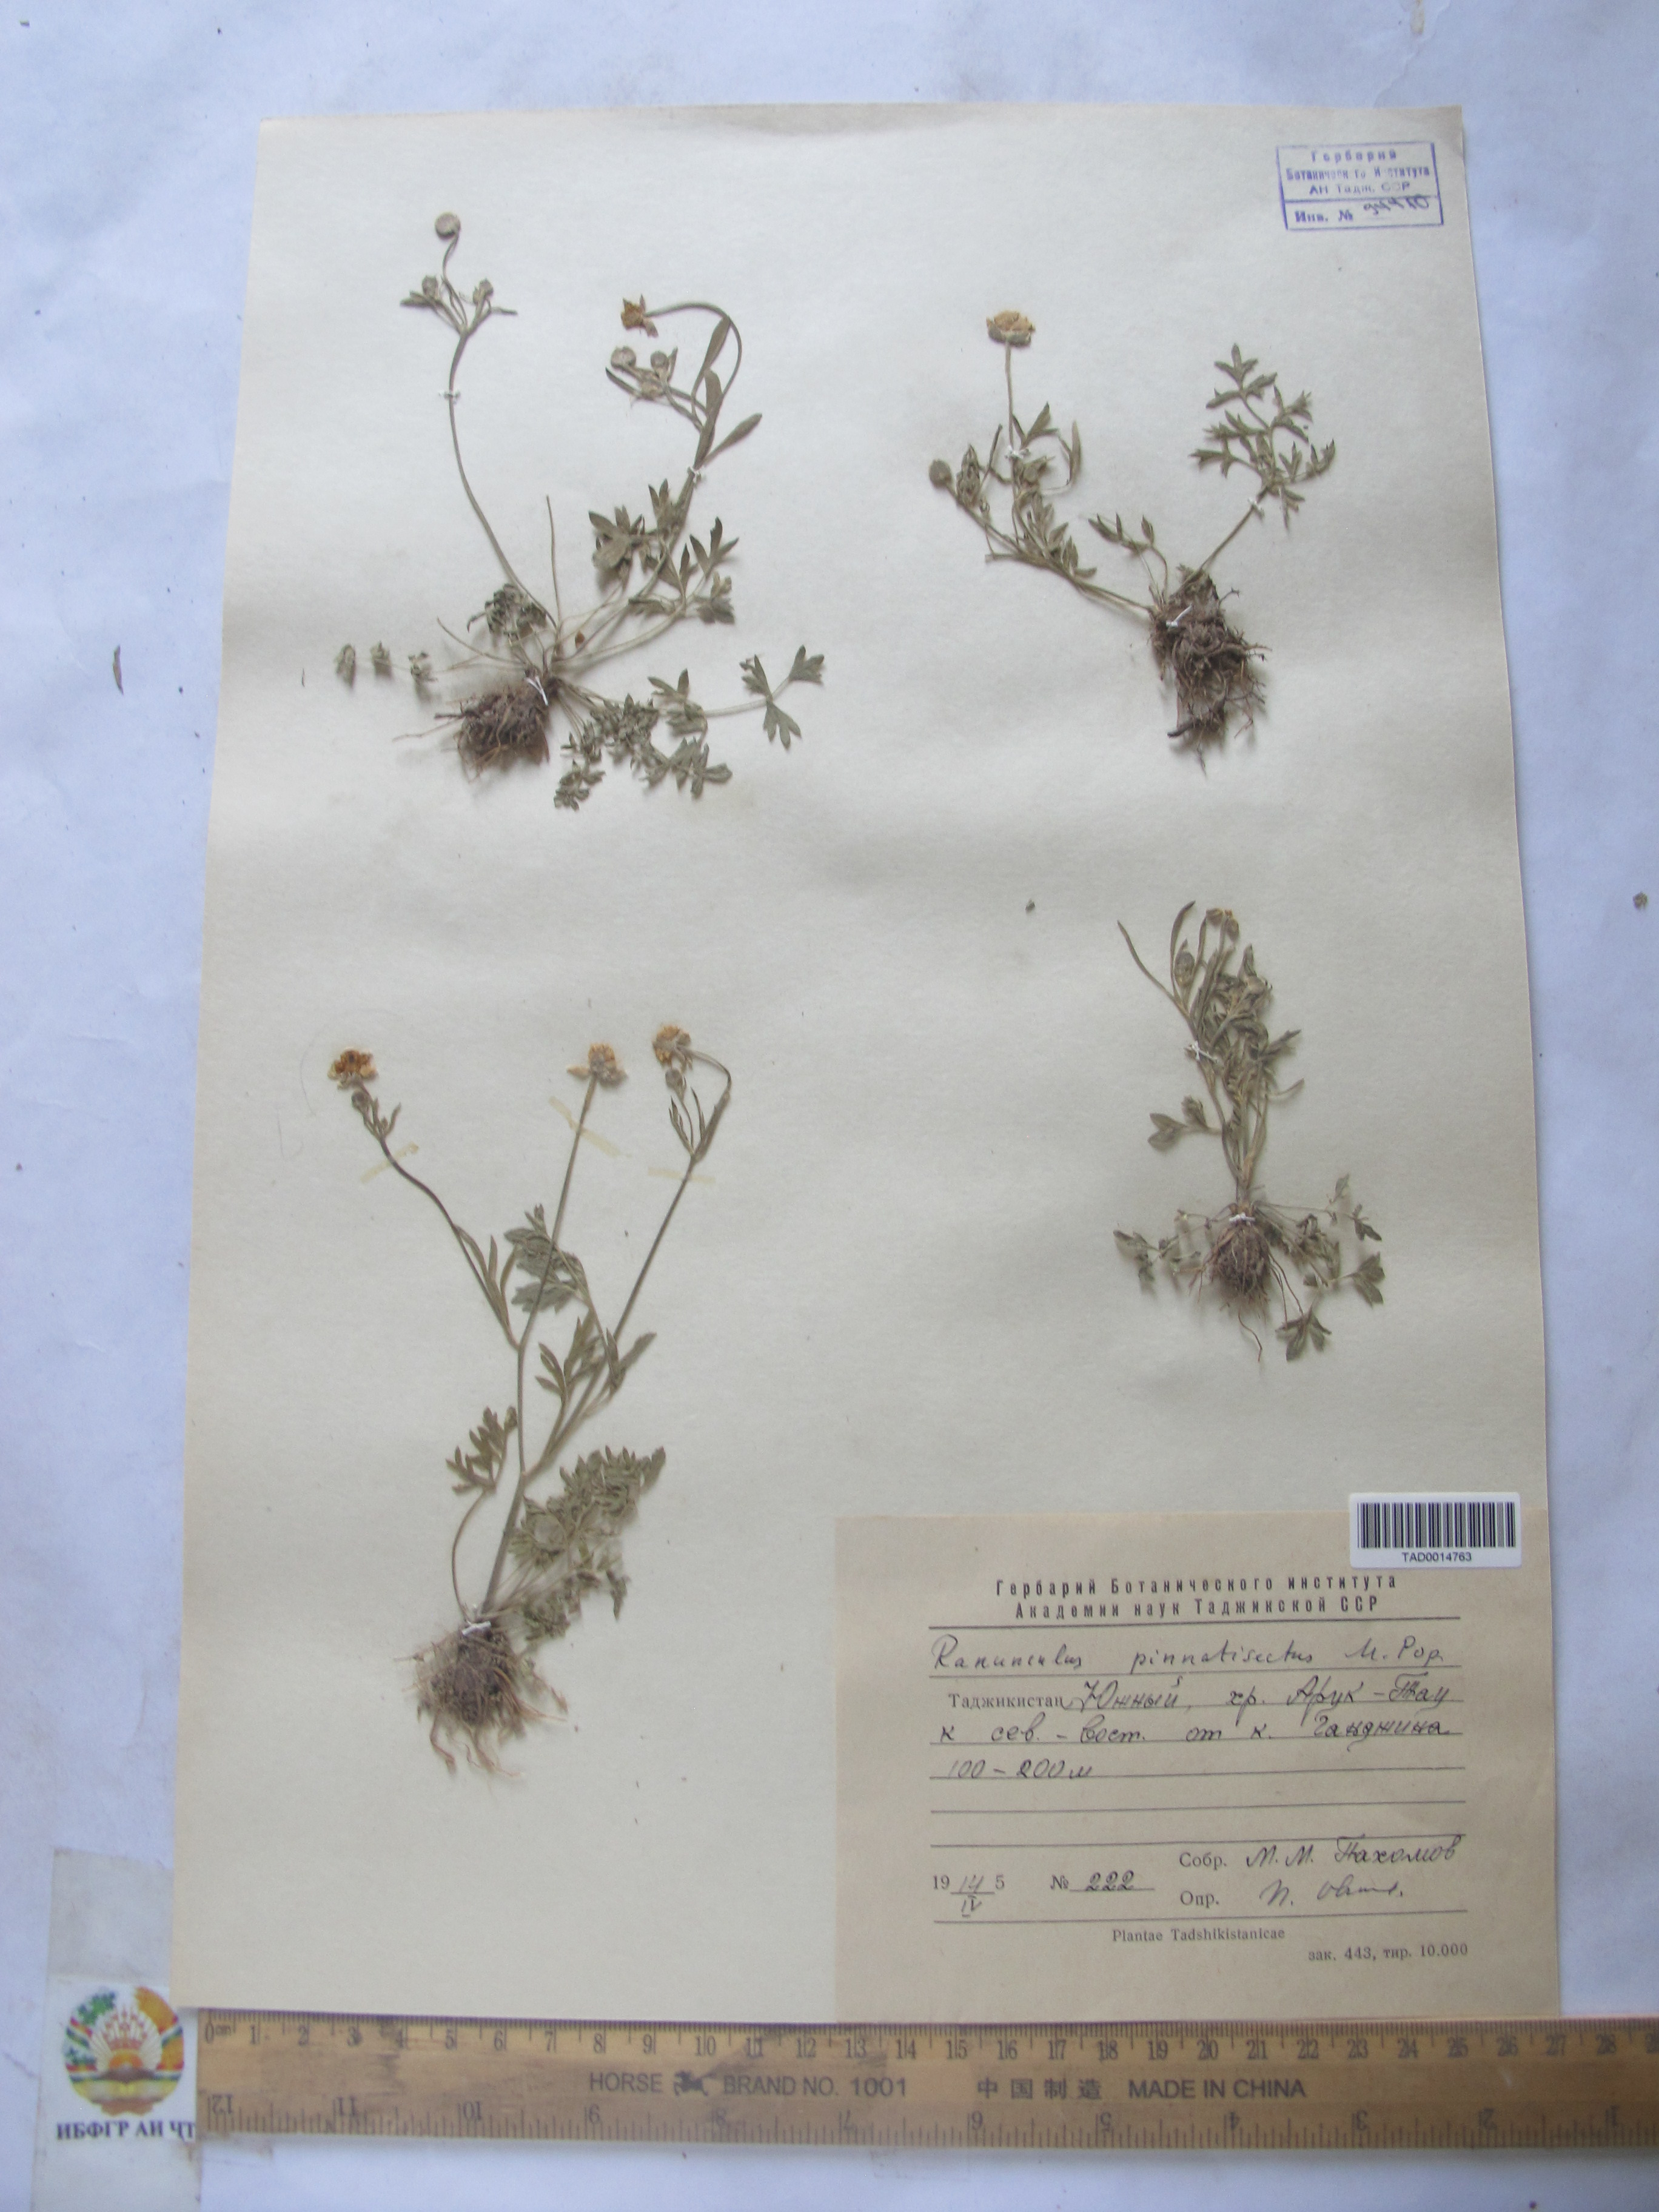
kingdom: Plantae
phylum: Tracheophyta
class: Magnoliopsida
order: Ranunculales
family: Ranunculaceae
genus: Ranunculus
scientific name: Ranunculus pinnatisectus
